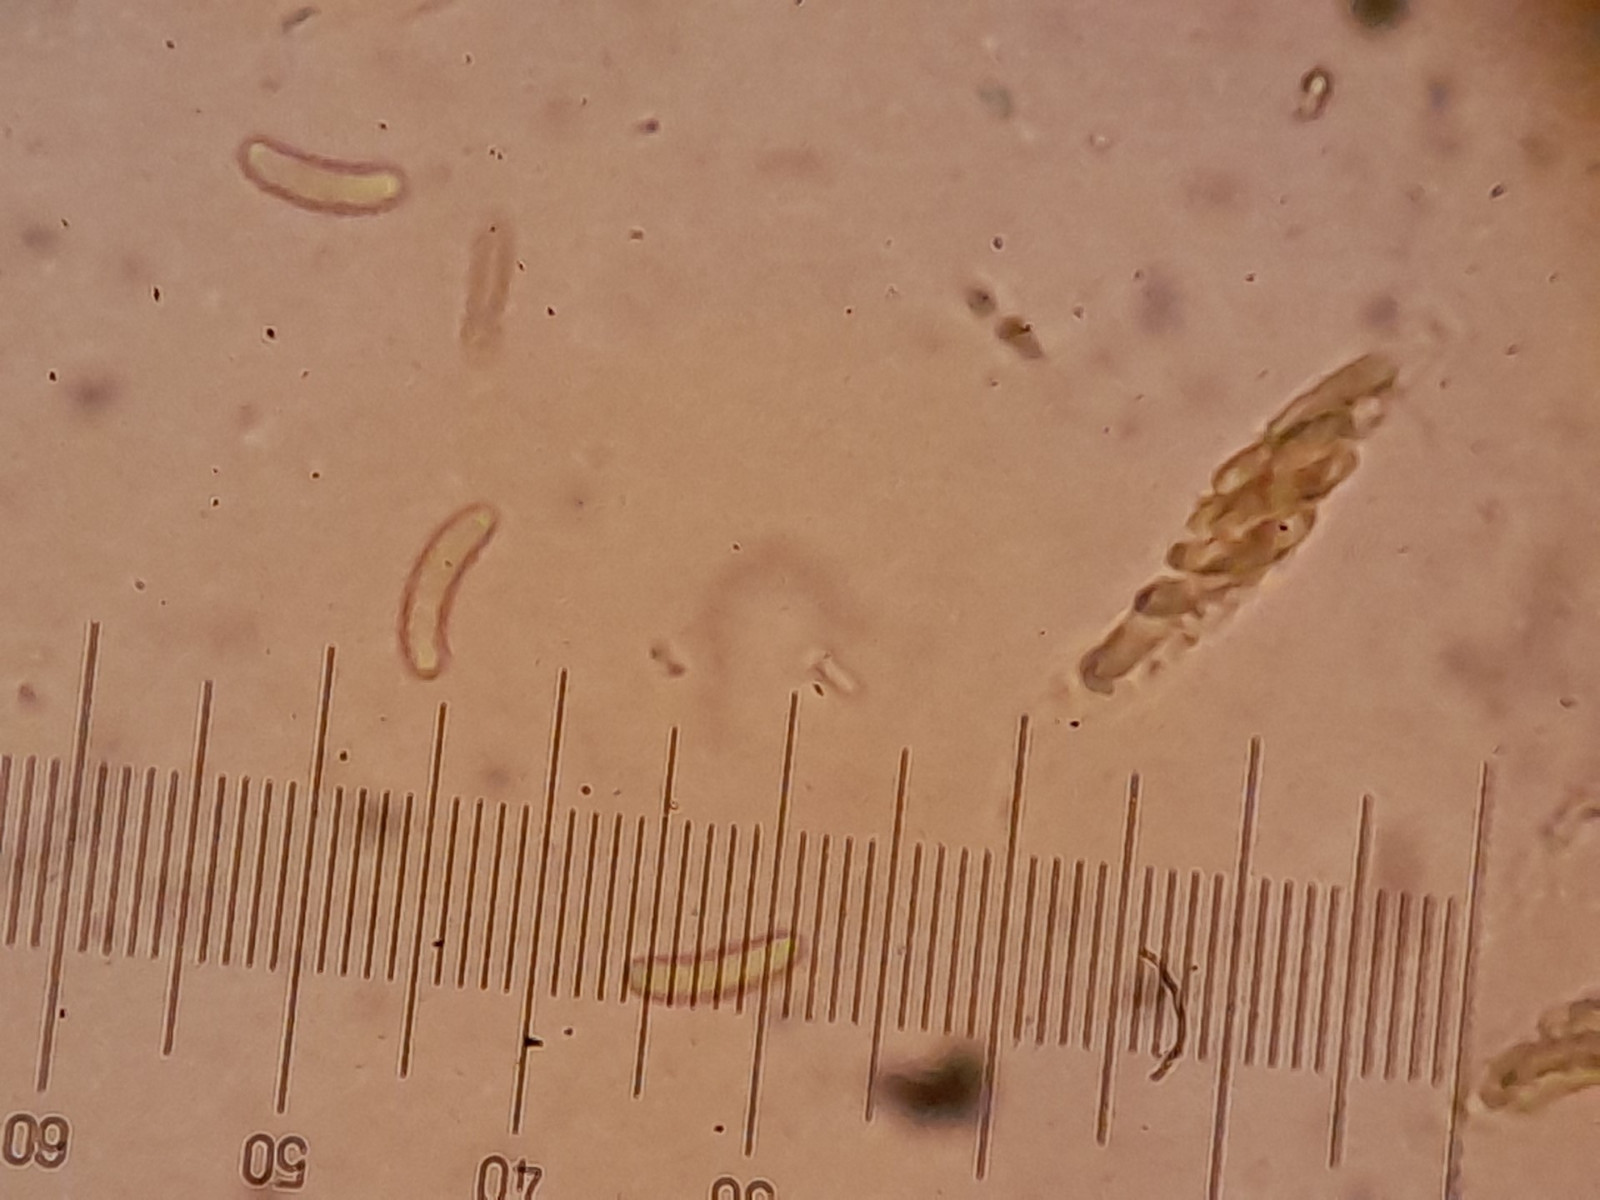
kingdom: Fungi
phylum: Ascomycota
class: Sordariomycetes
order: Xylariales
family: Diatrypaceae
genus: Diatrype
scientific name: Diatrype
